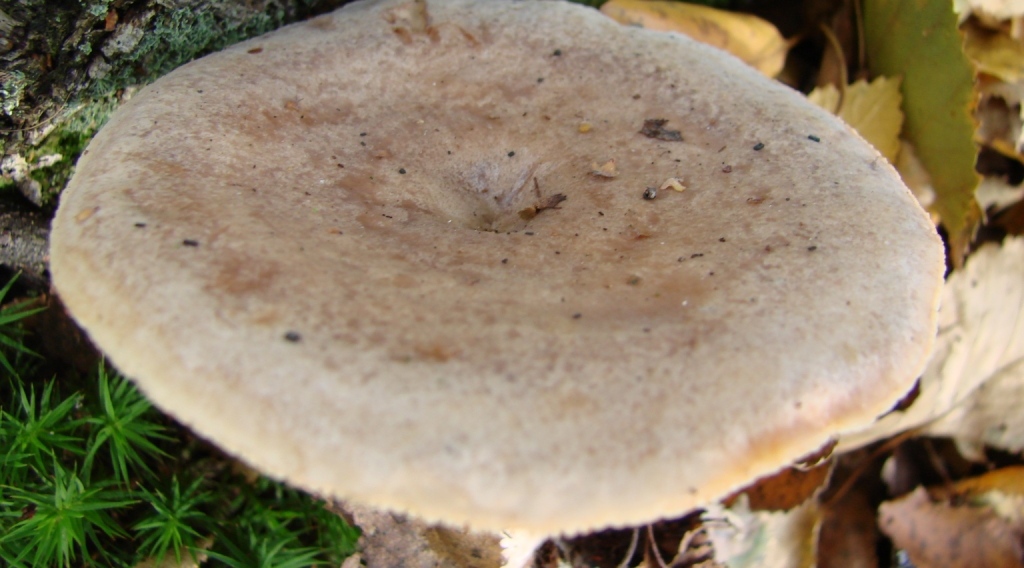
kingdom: Fungi
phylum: Basidiomycota
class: Agaricomycetes
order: Russulales
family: Russulaceae
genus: Lactarius
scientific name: Lactarius vietus
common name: violetgrå mælkehat
